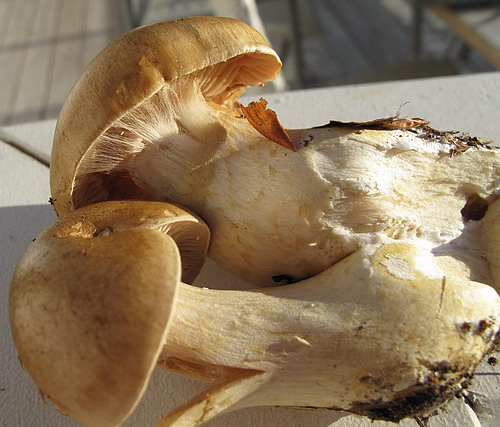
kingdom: Fungi
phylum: Basidiomycota
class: Agaricomycetes
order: Agaricales
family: Cortinariaceae
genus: Cortinarius
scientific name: Cortinarius turgidus
